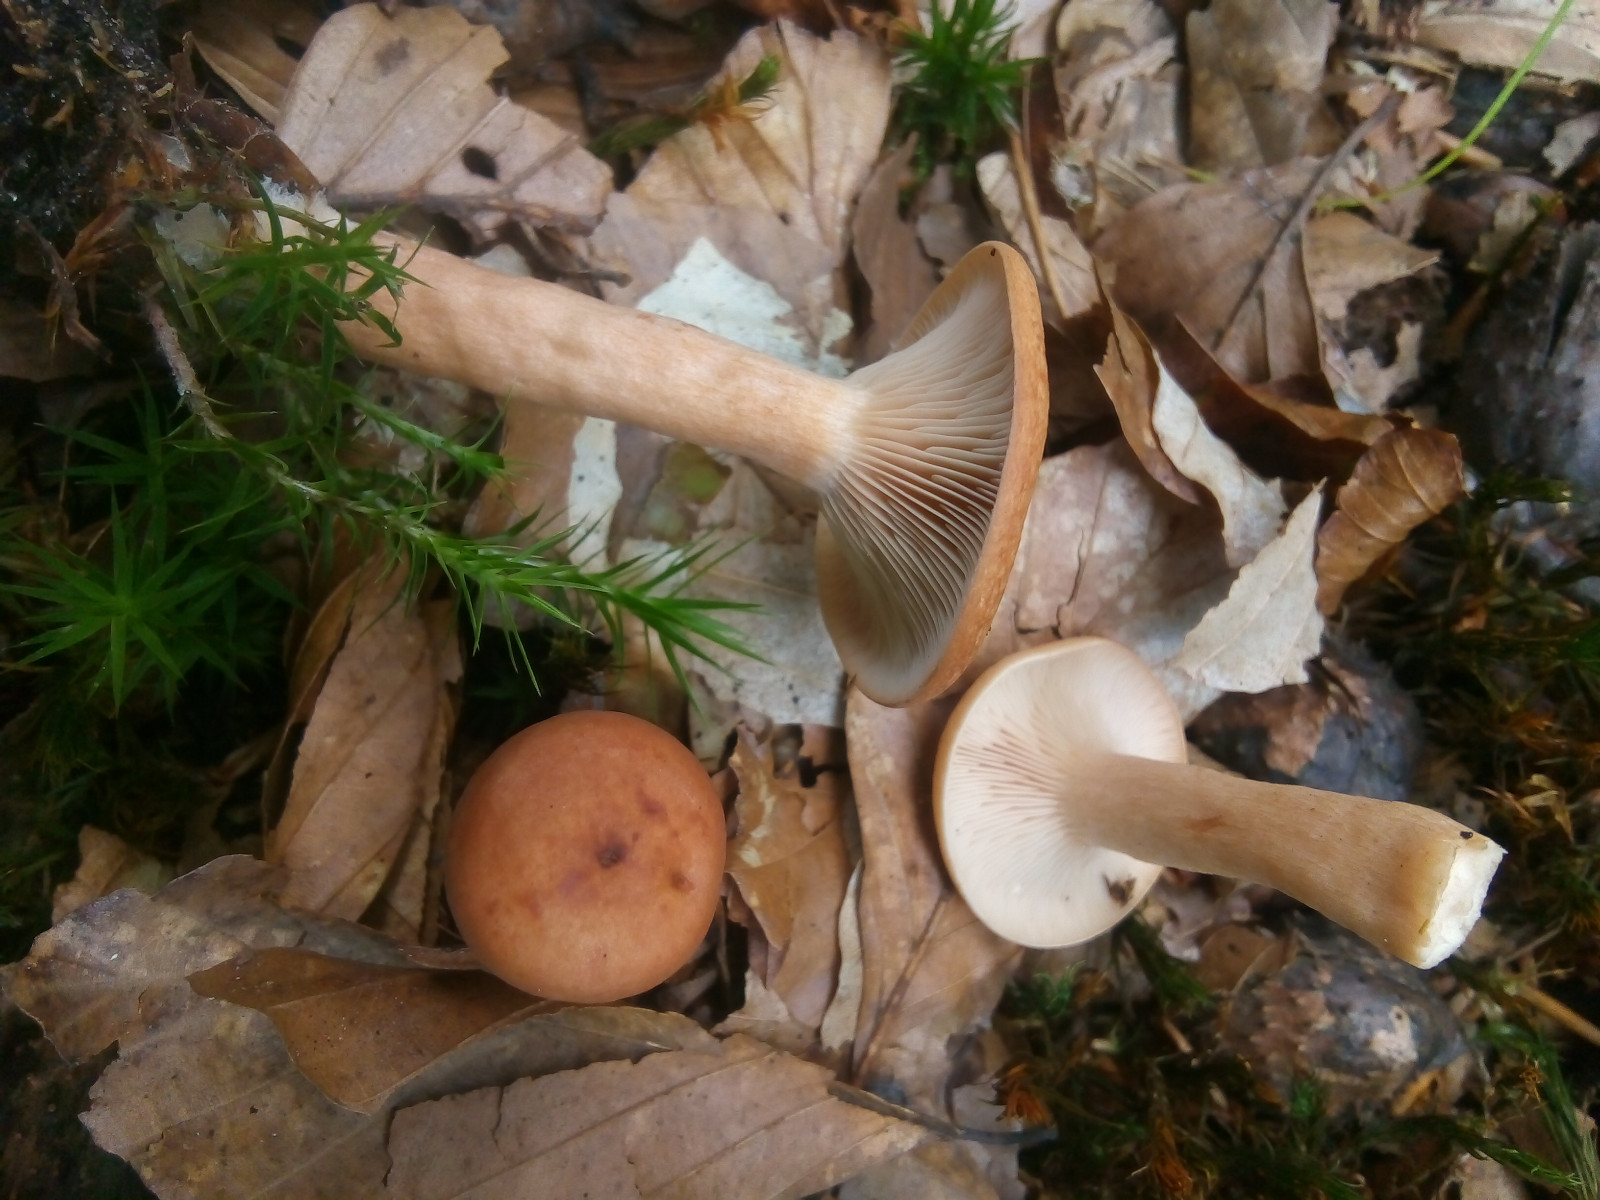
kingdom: Fungi
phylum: Basidiomycota
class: Agaricomycetes
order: Russulales
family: Russulaceae
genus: Lactarius
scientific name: Lactarius subdulcis
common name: sødlig mælkehat
